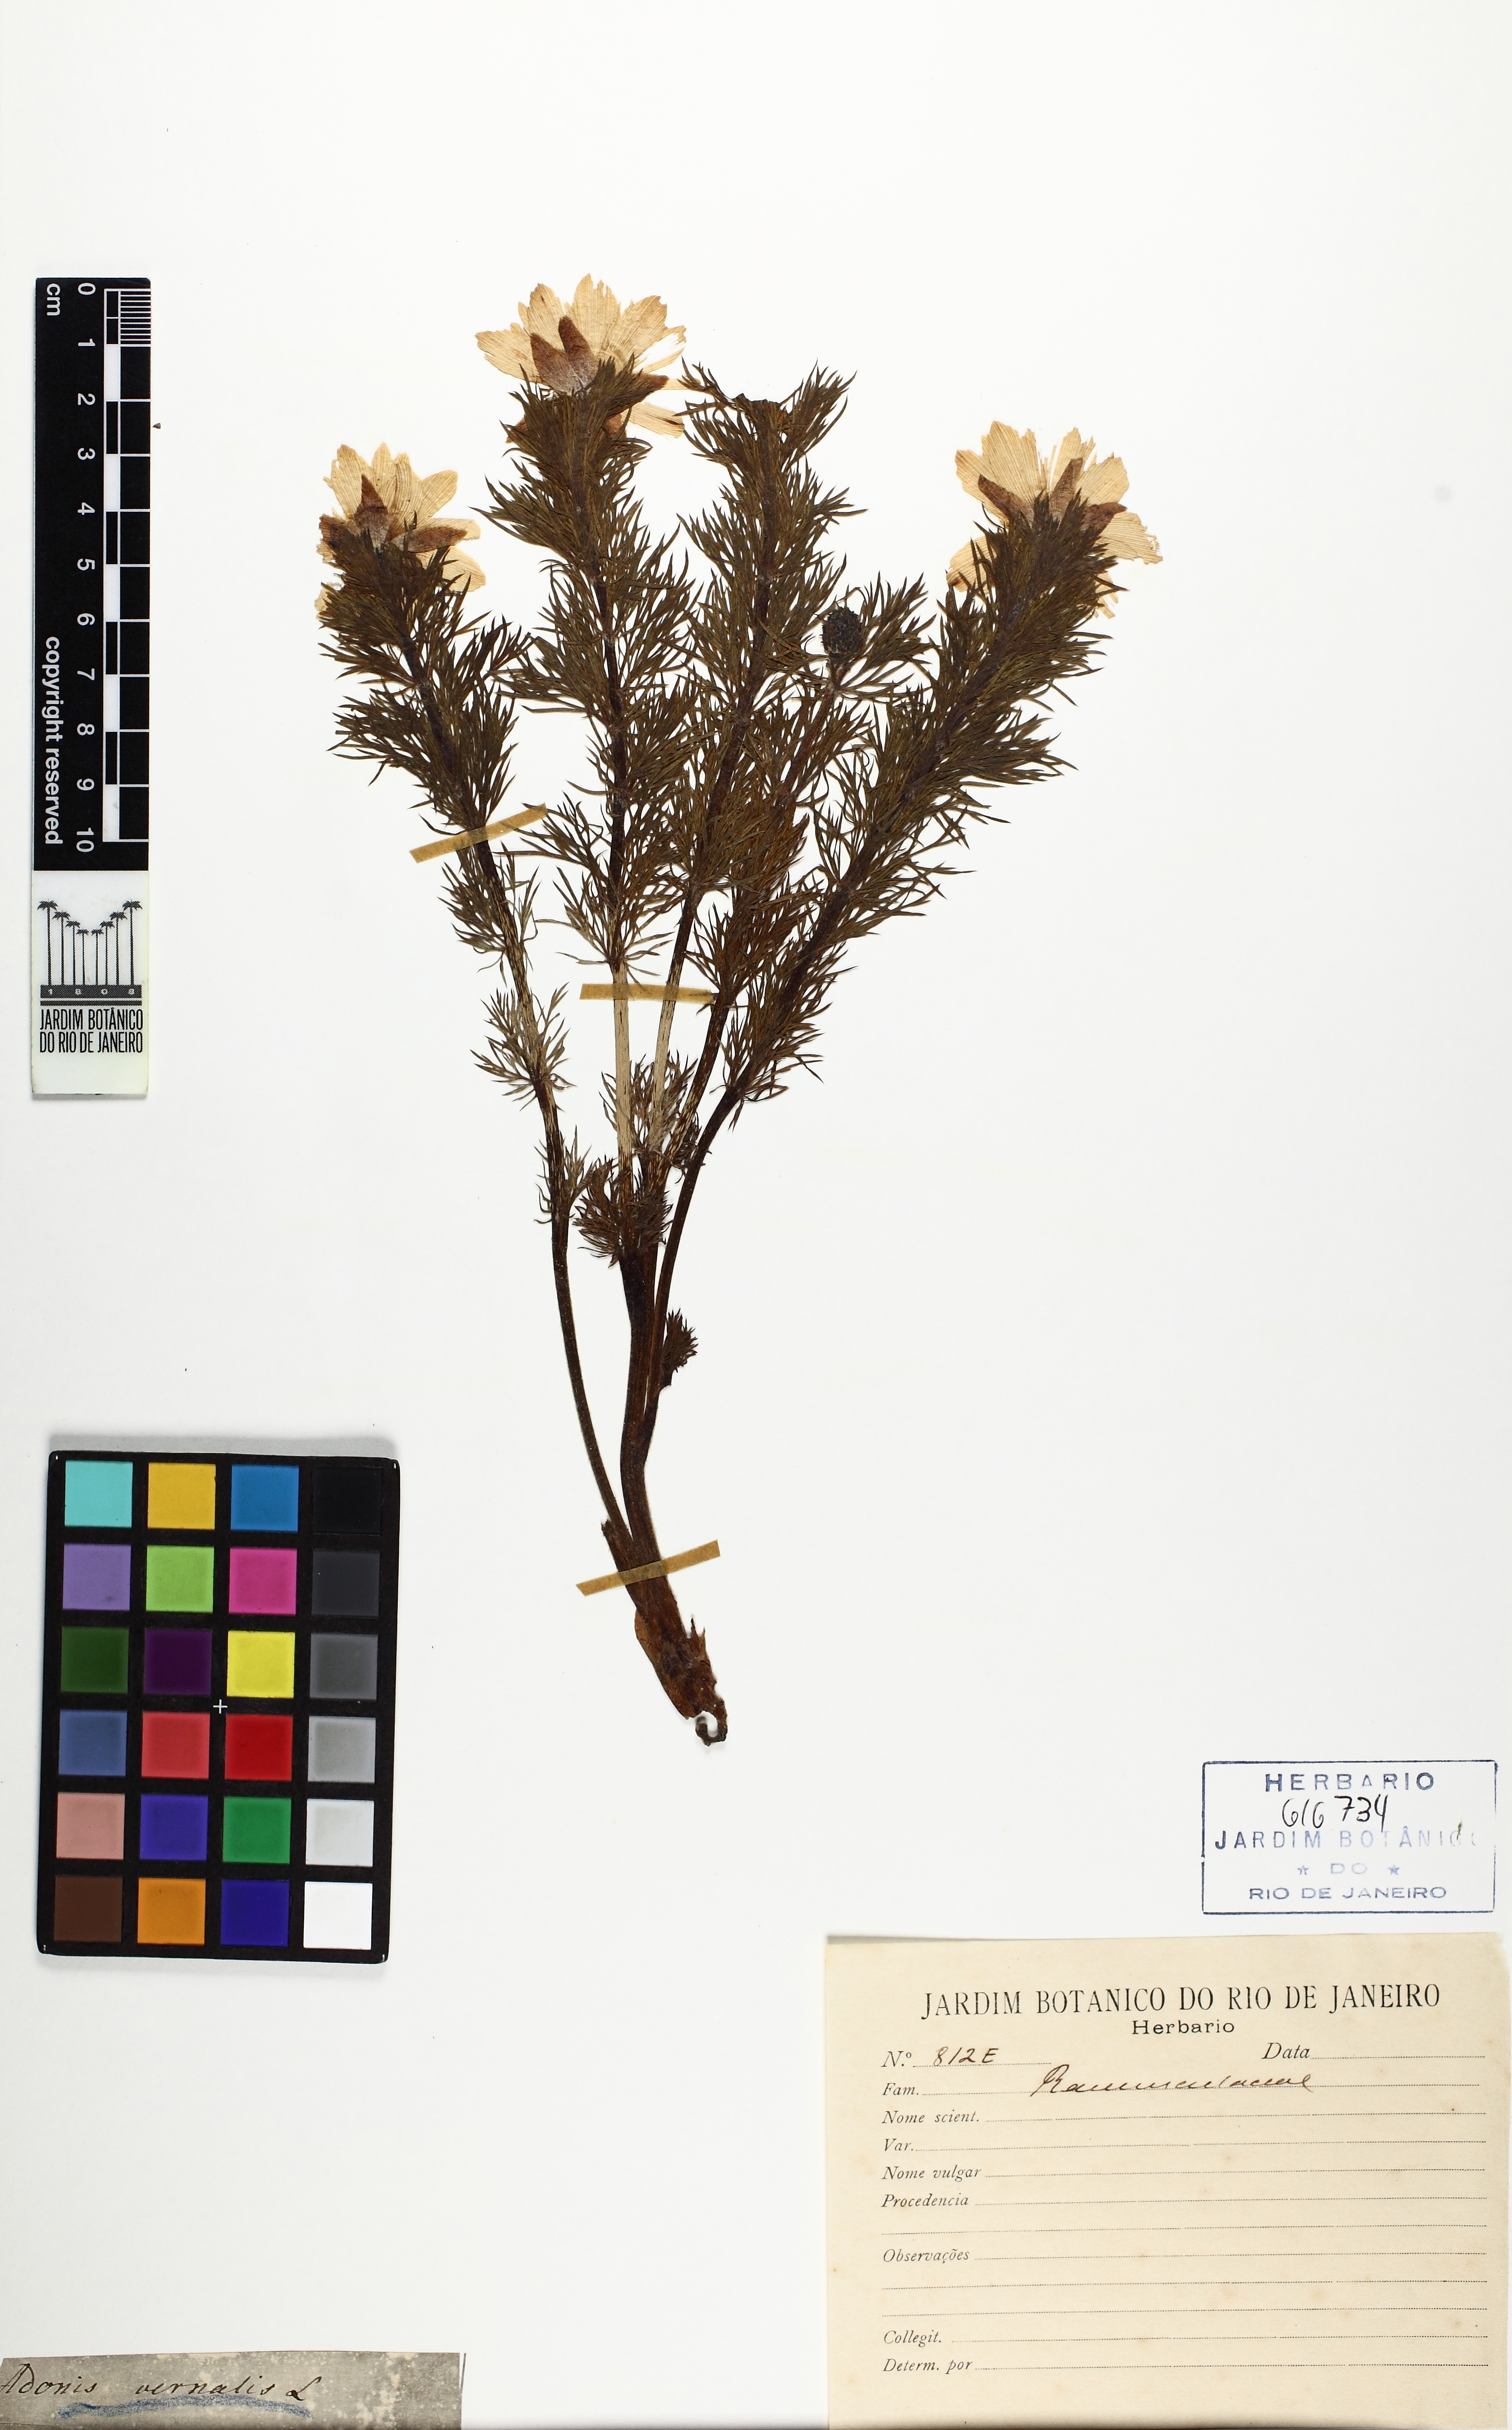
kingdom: Plantae
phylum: Tracheophyta
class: Magnoliopsida
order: Ranunculales
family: Ranunculaceae
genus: Adonis
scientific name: Adonis vernalis
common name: Yellow pheasants-eye
